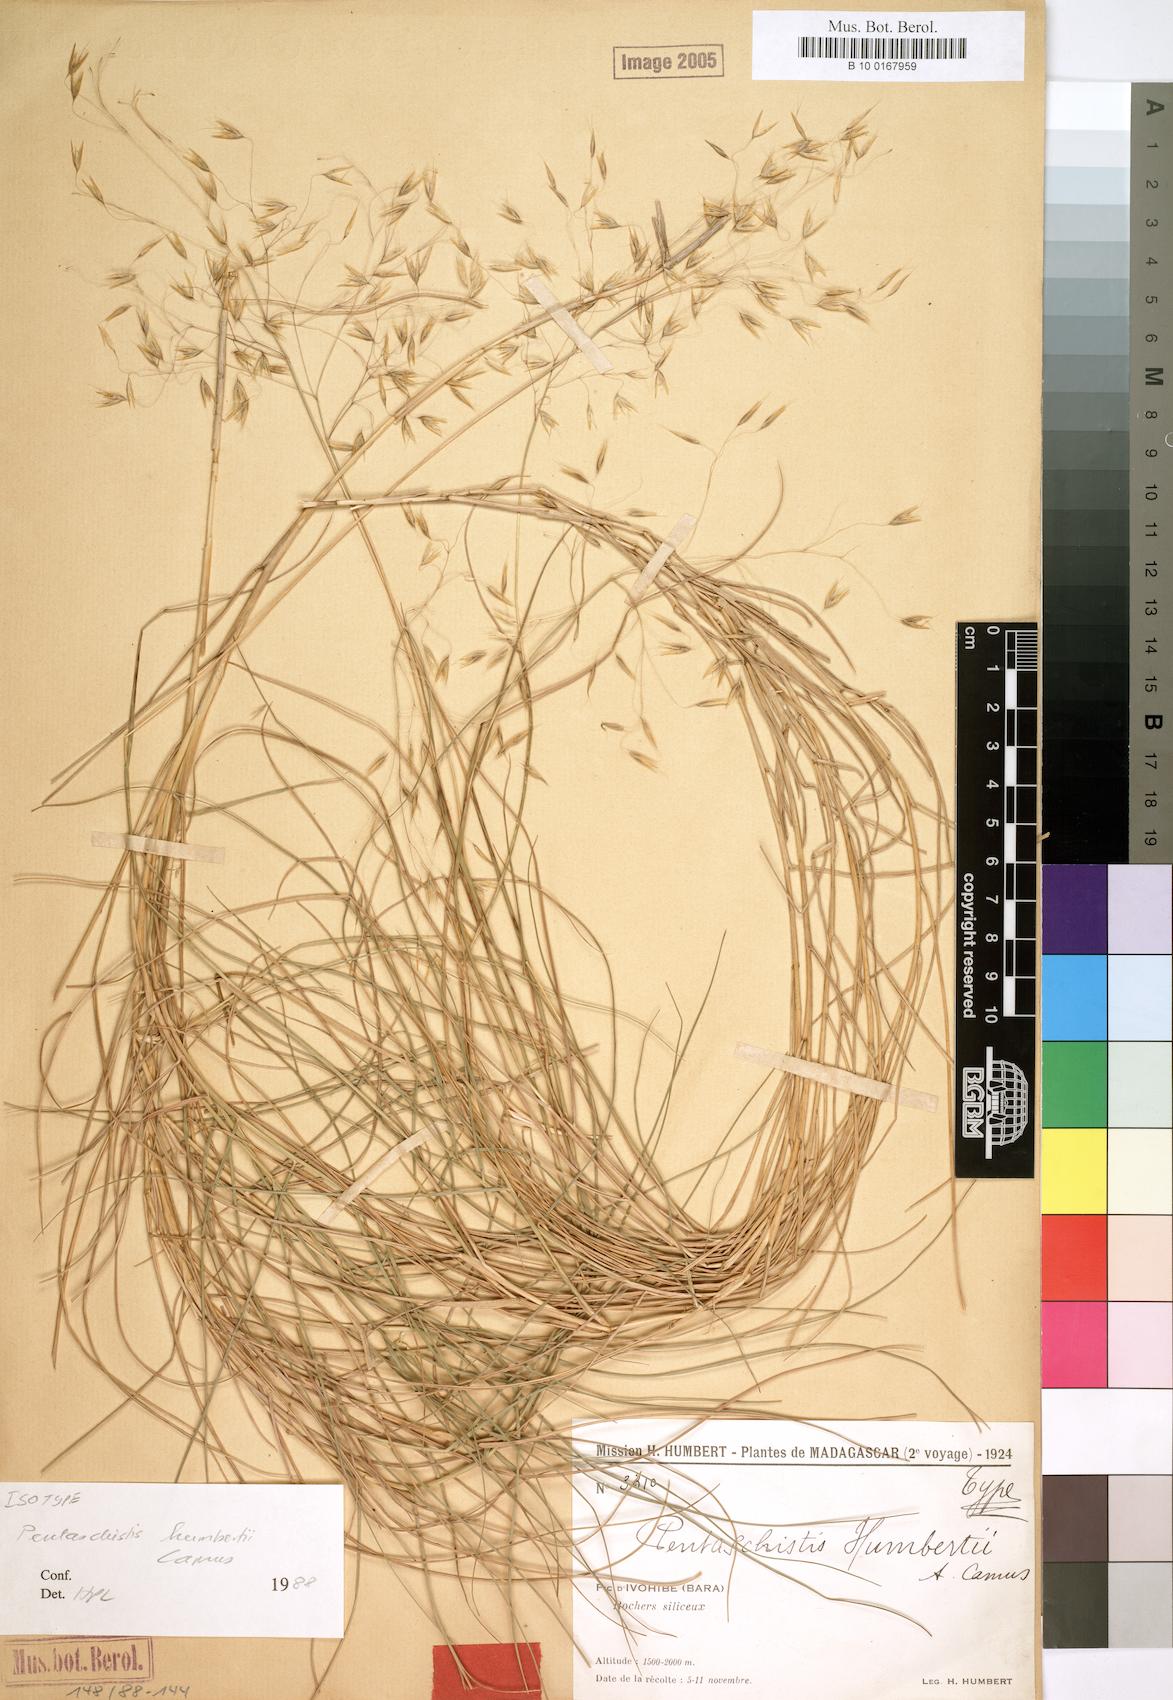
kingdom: Plantae
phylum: Tracheophyta
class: Liliopsida
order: Poales
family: Poaceae
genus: Pentameris
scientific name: Pentameris humbertii
